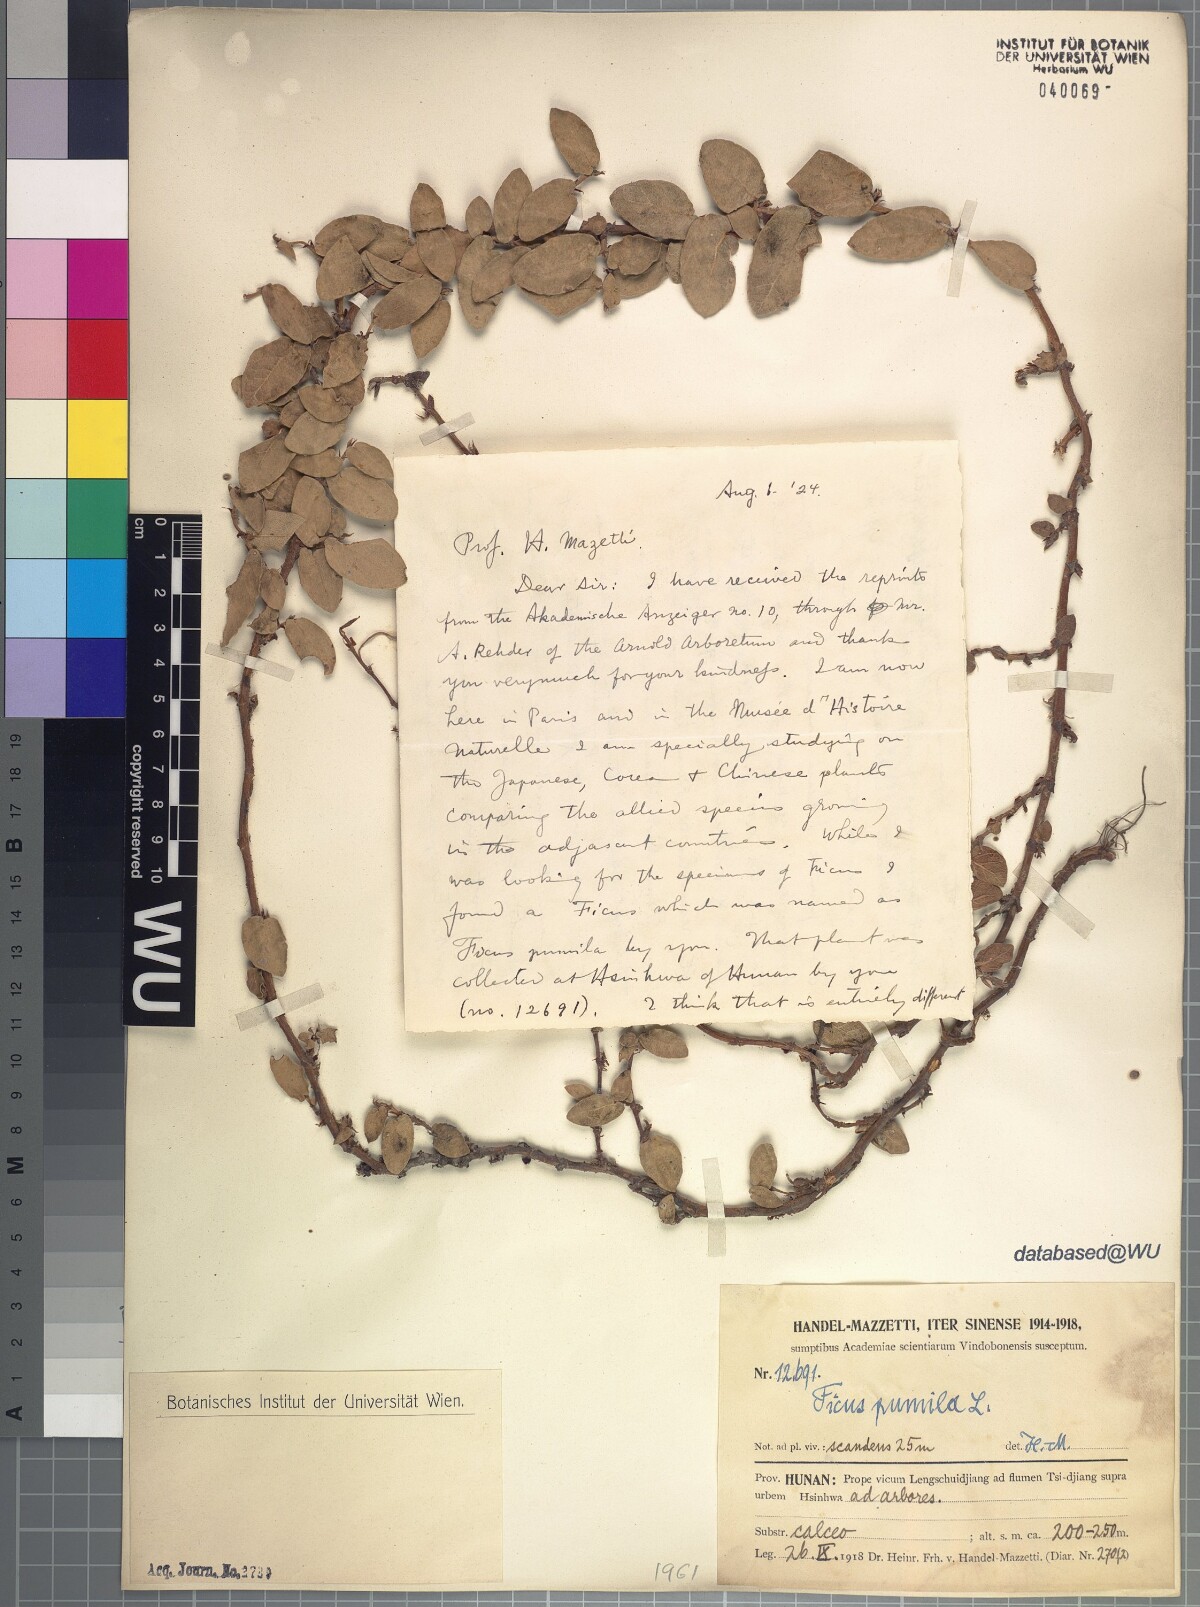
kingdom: Plantae
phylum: Tracheophyta
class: Magnoliopsida
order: Rosales
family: Moraceae
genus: Ficus
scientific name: Ficus pumila
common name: Climbingfig
